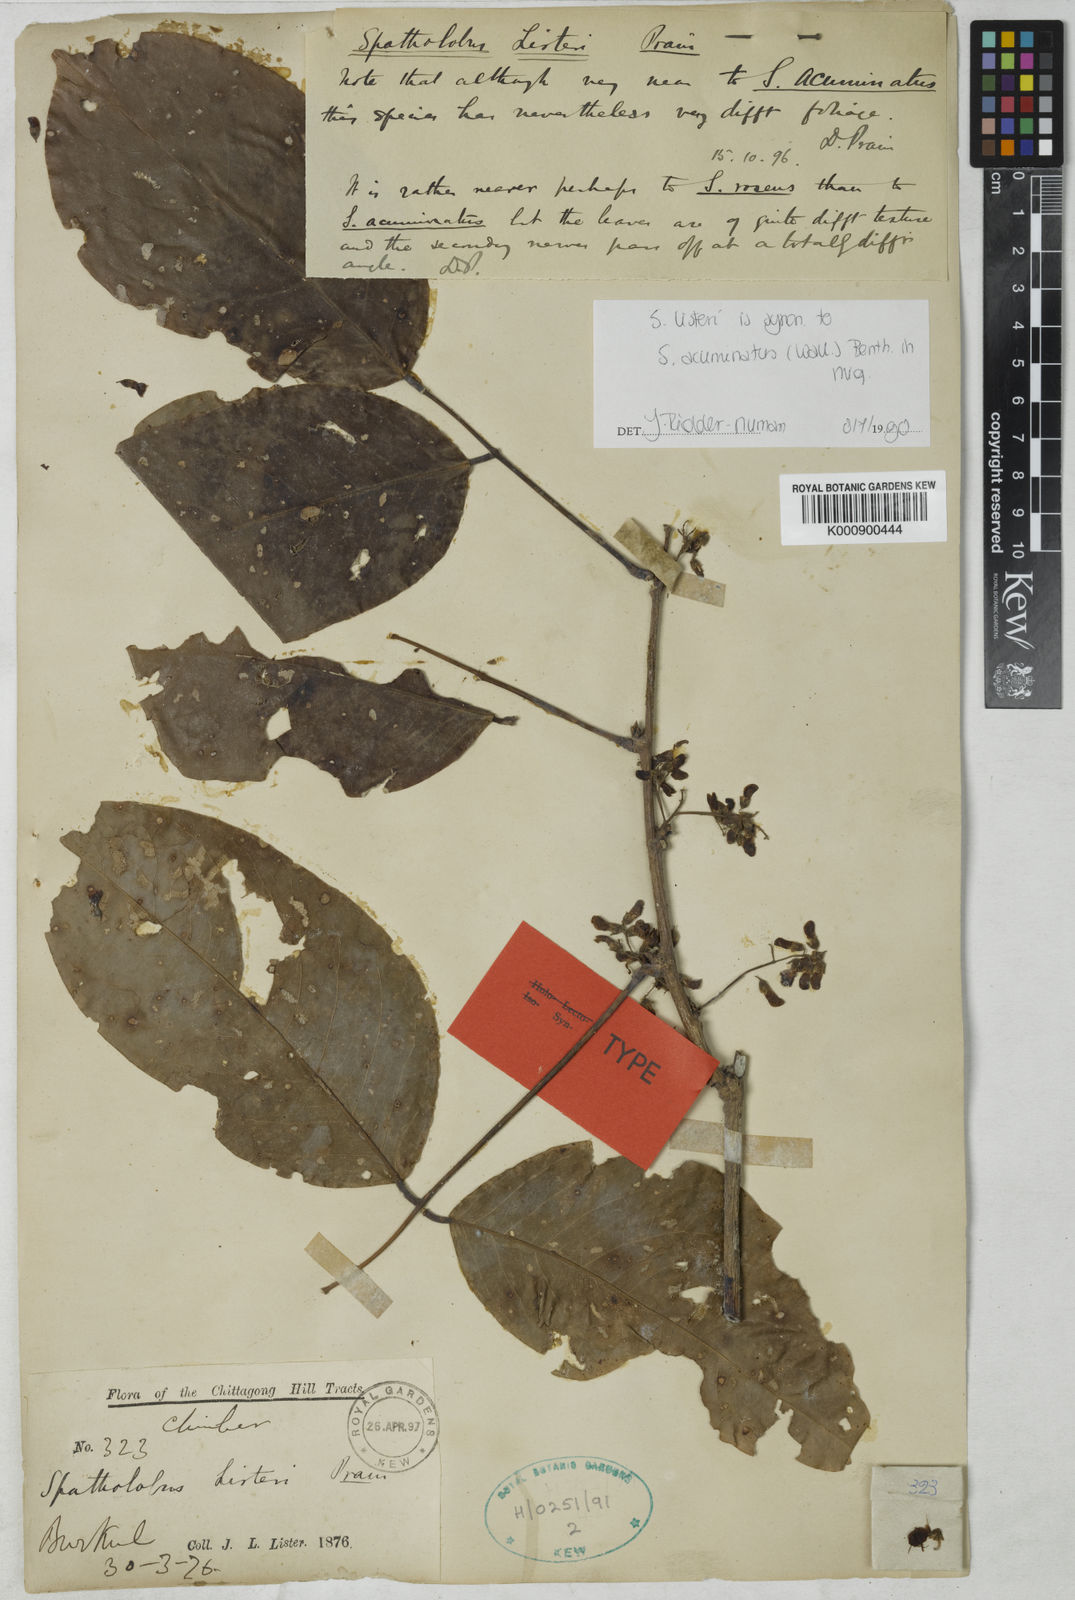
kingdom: Plantae
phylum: Tracheophyta
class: Magnoliopsida
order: Fabales
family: Fabaceae
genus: Spatholobus
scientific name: Spatholobus acuminatus
